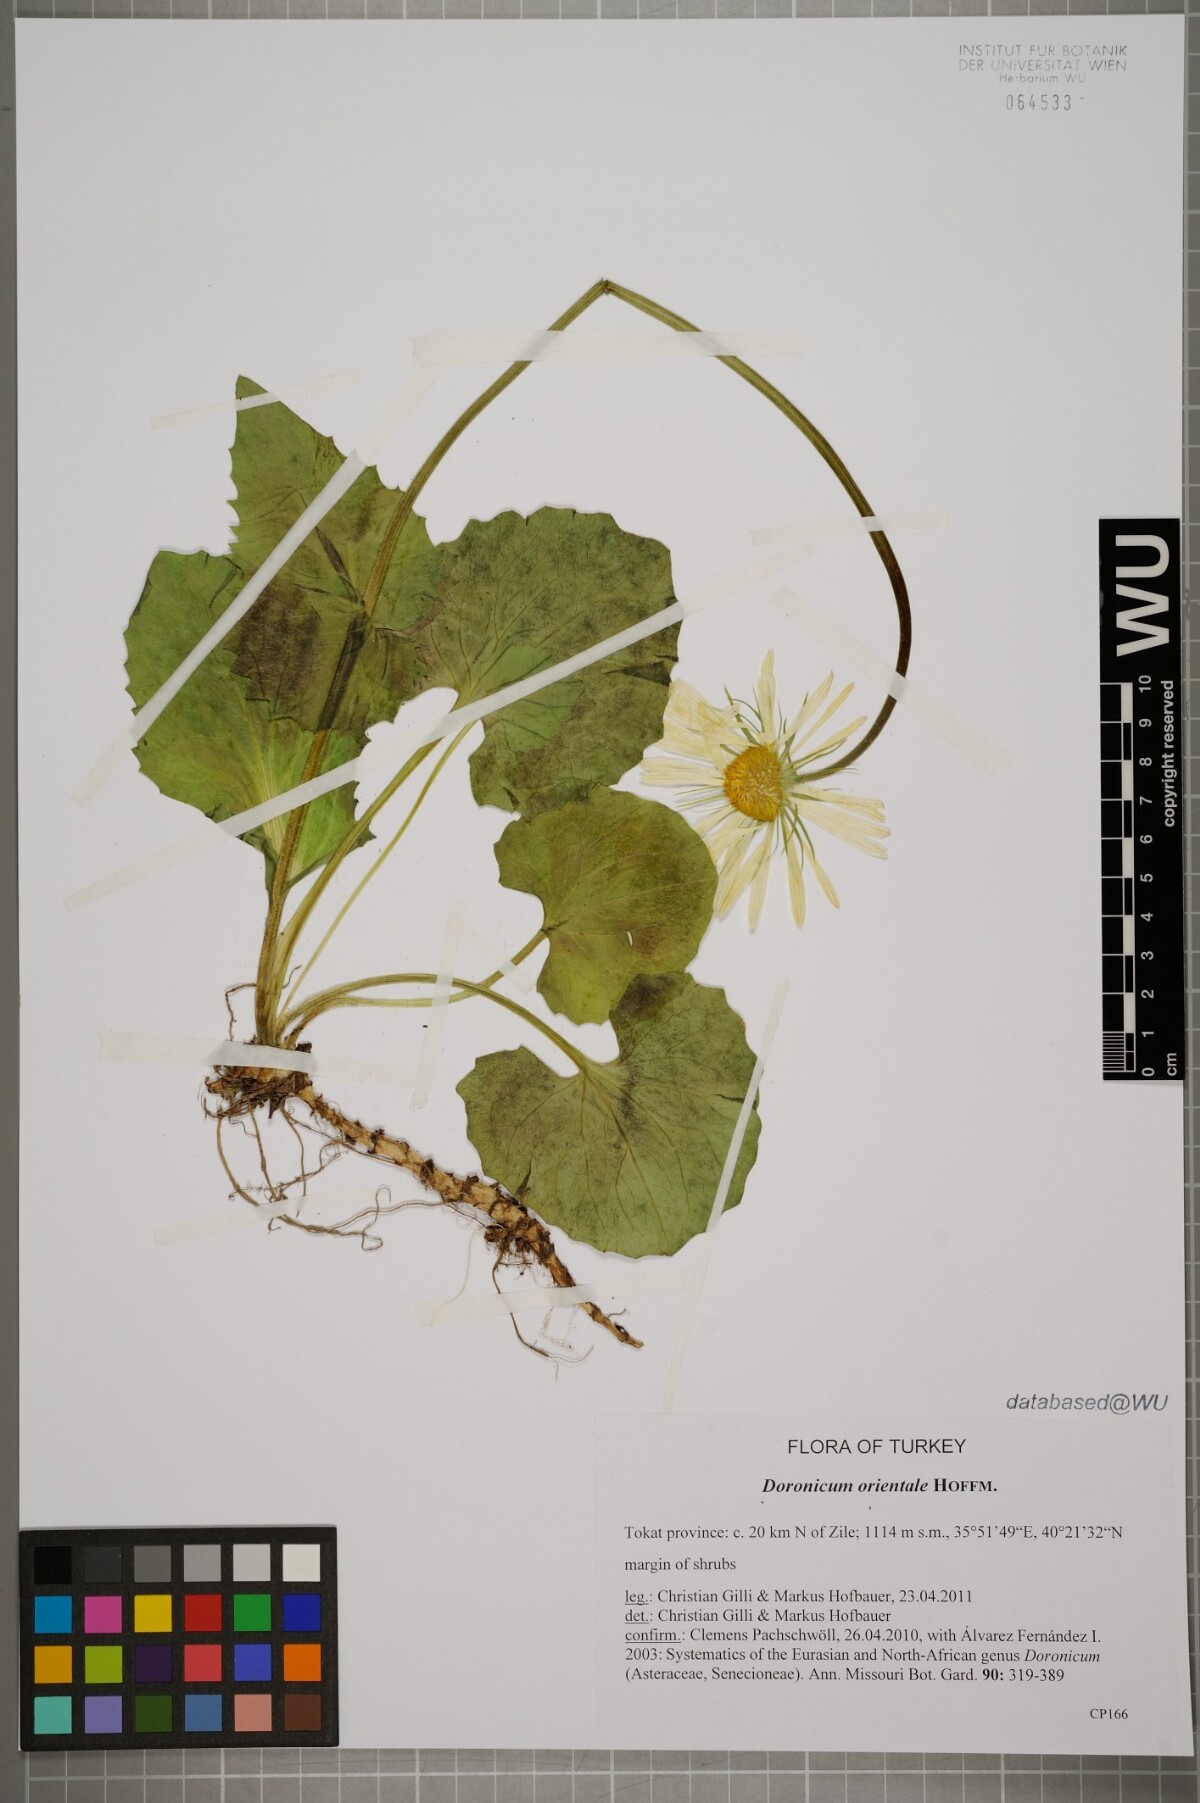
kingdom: Plantae
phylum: Tracheophyta
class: Magnoliopsida
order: Asterales
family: Asteraceae
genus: Doronicum
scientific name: Doronicum orientale
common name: Oriental leopard's-bane
